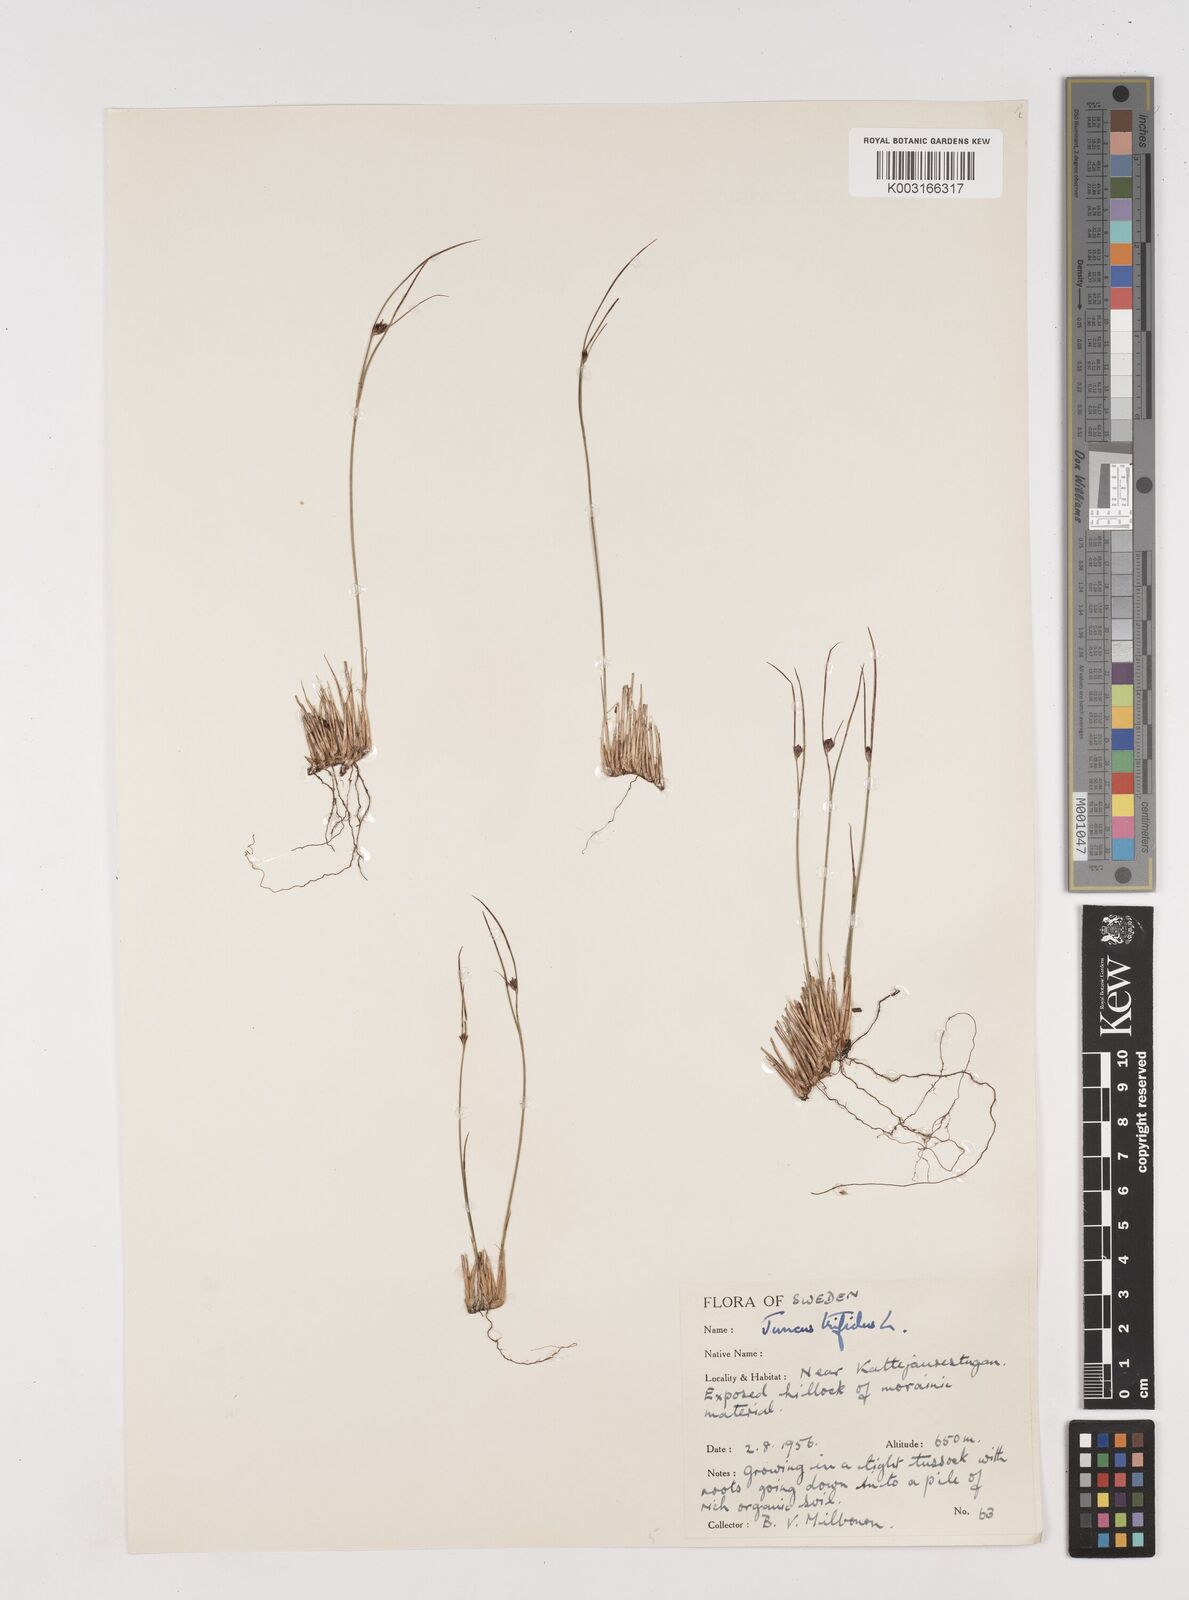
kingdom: Plantae
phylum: Tracheophyta
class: Liliopsida
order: Poales
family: Juncaceae
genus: Oreojuncus
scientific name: Oreojuncus trifidus
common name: Highland rush
